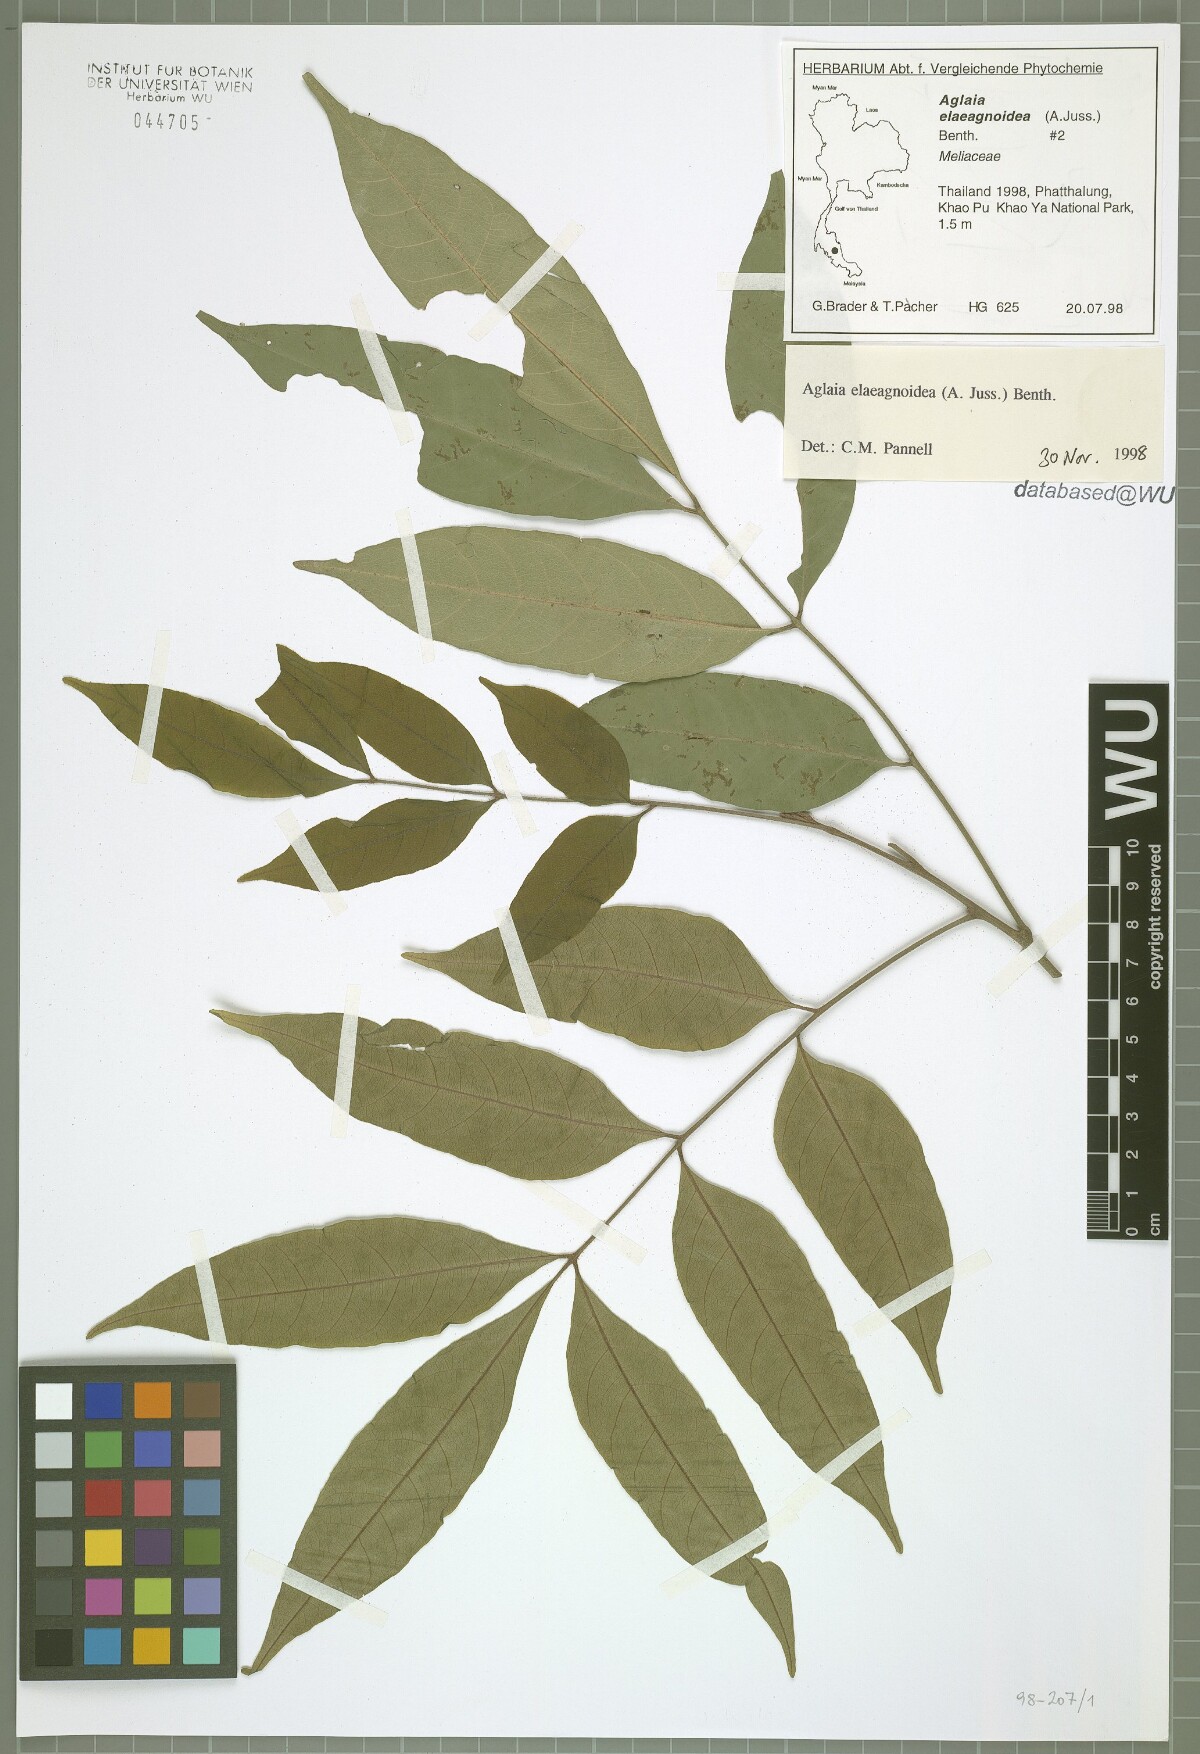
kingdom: Plantae
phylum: Tracheophyta
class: Magnoliopsida
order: Sapindales
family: Meliaceae
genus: Aglaia
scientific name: Aglaia elaeagnoidea
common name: Droopyleaf
